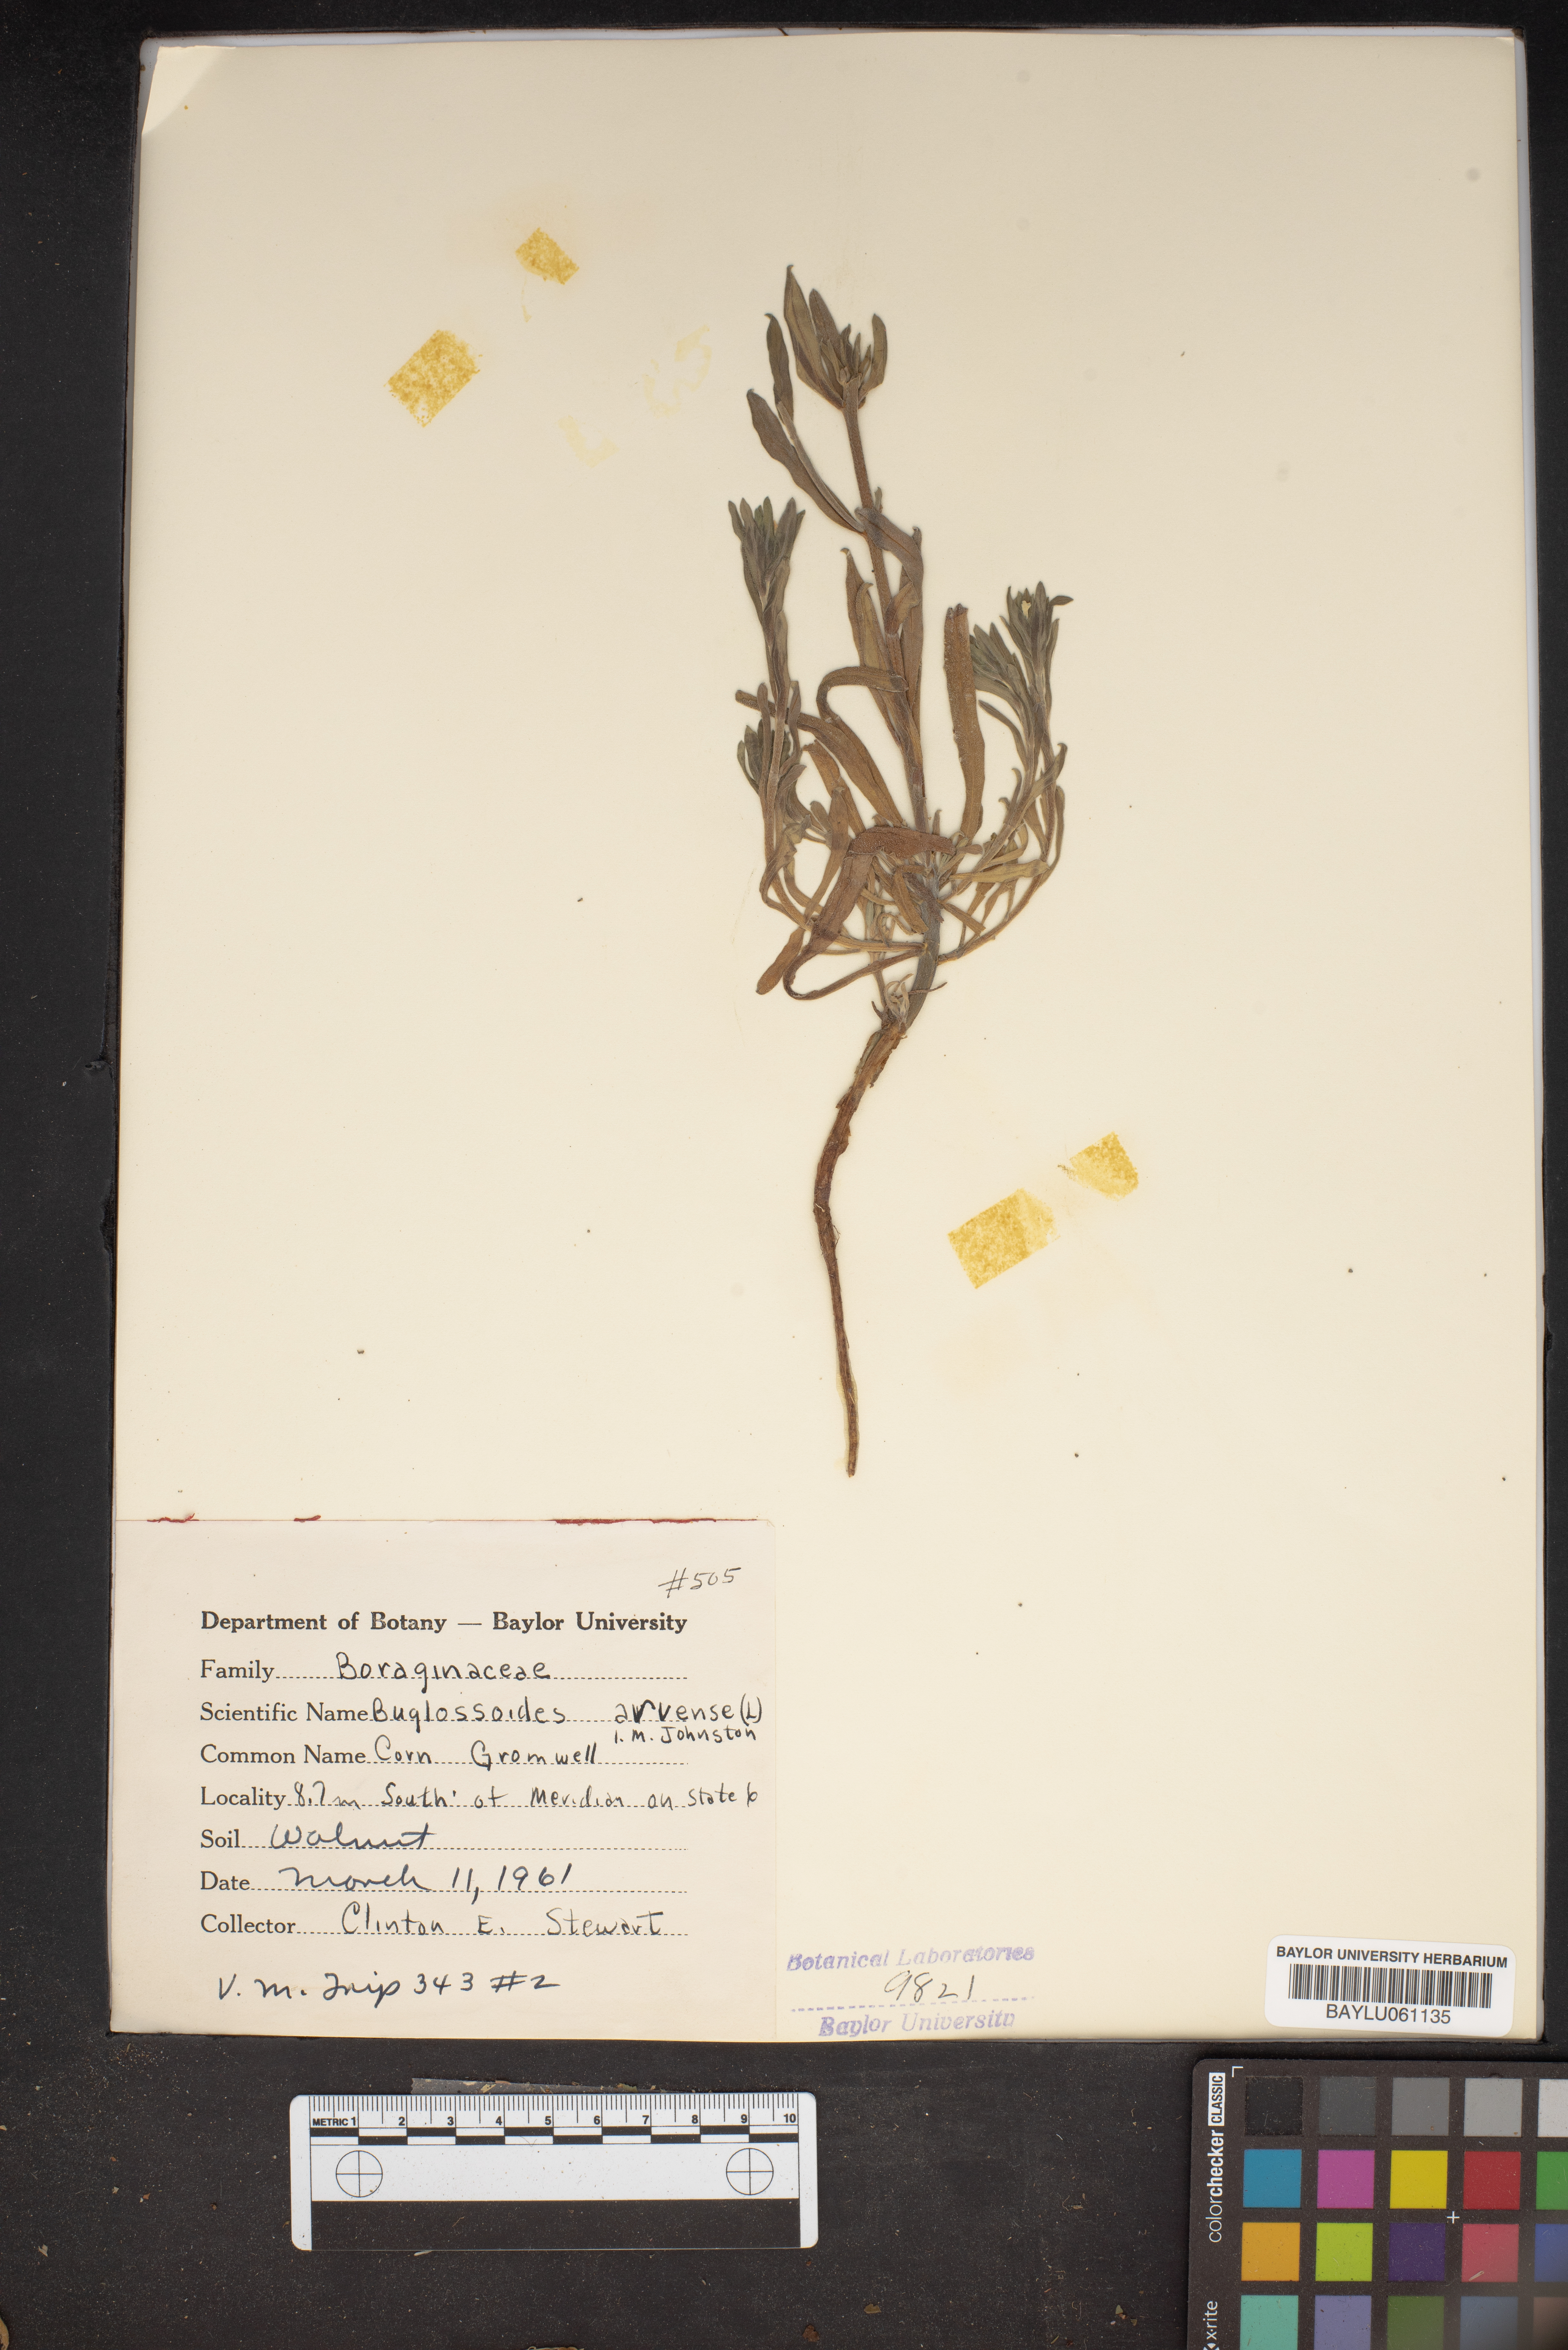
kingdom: Plantae
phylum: Tracheophyta
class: Magnoliopsida
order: Boraginales
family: Boraginaceae
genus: Buglossoides
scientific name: Buglossoides arvensis
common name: Corn gromwell
